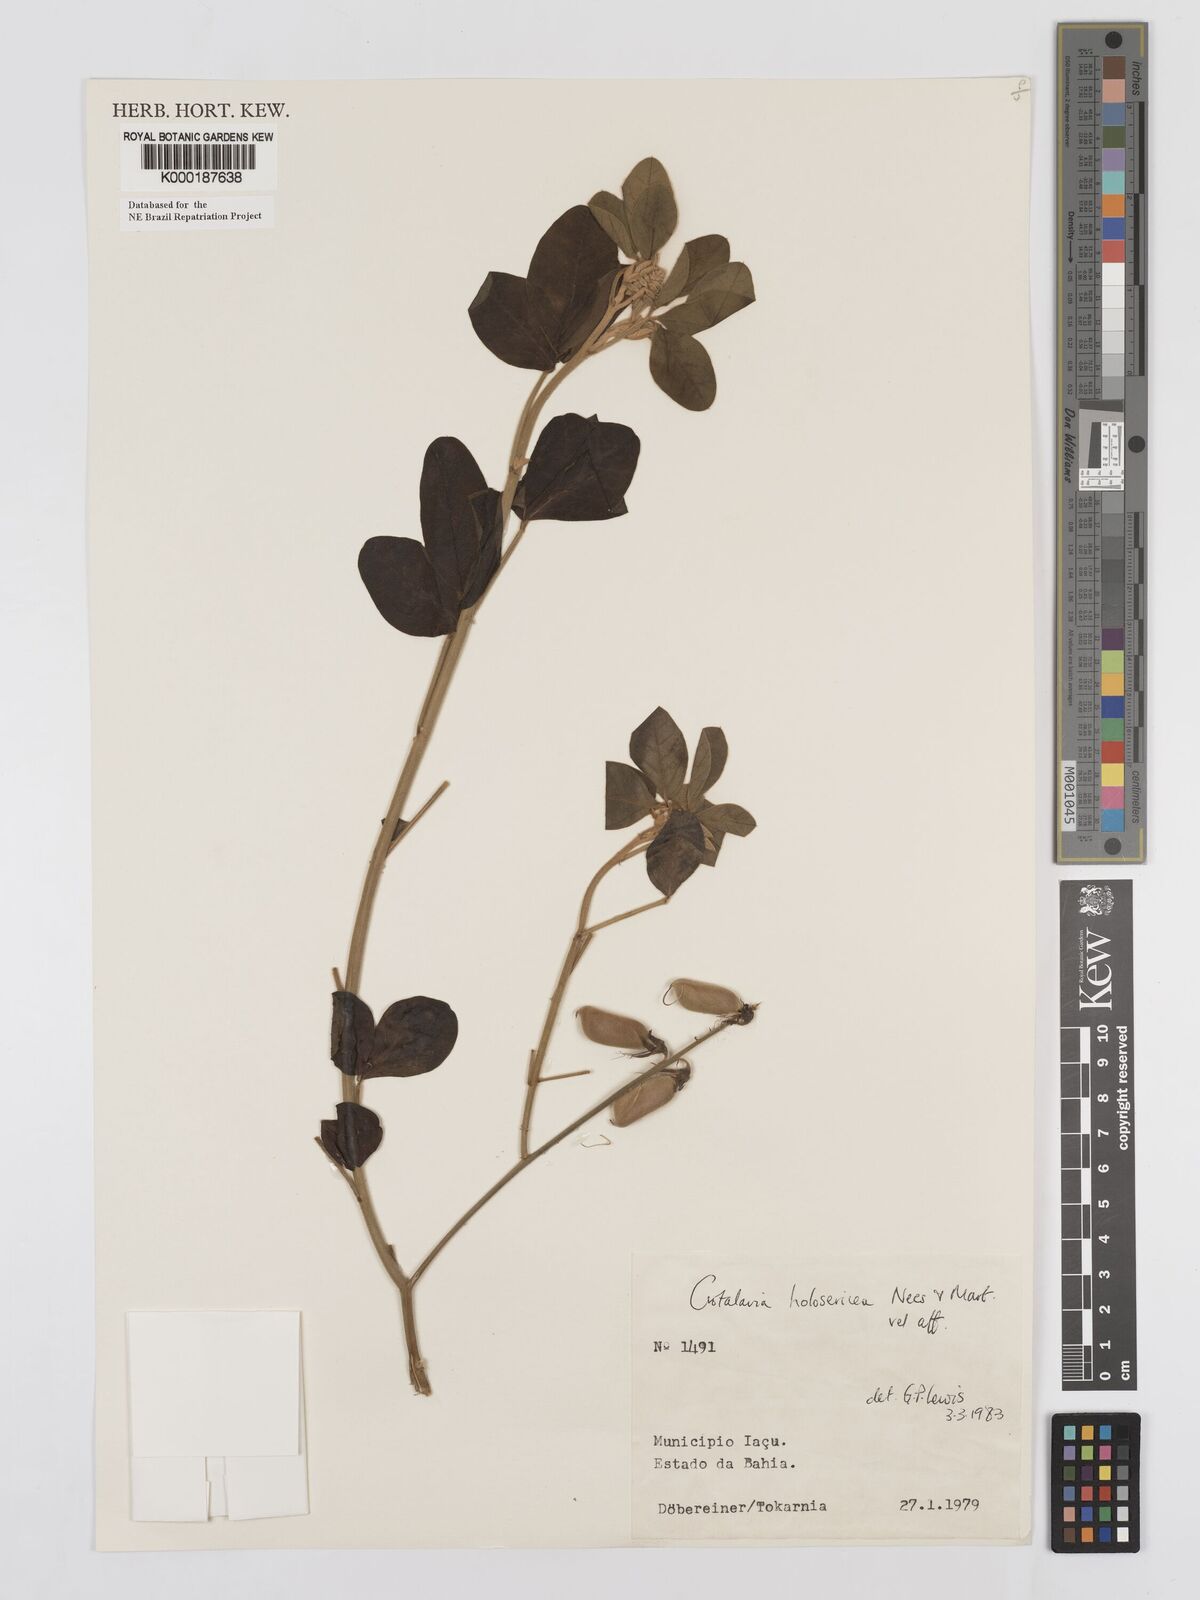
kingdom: Plantae
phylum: Tracheophyta
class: Magnoliopsida
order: Fabales
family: Fabaceae
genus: Crotalaria
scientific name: Crotalaria holosericea
